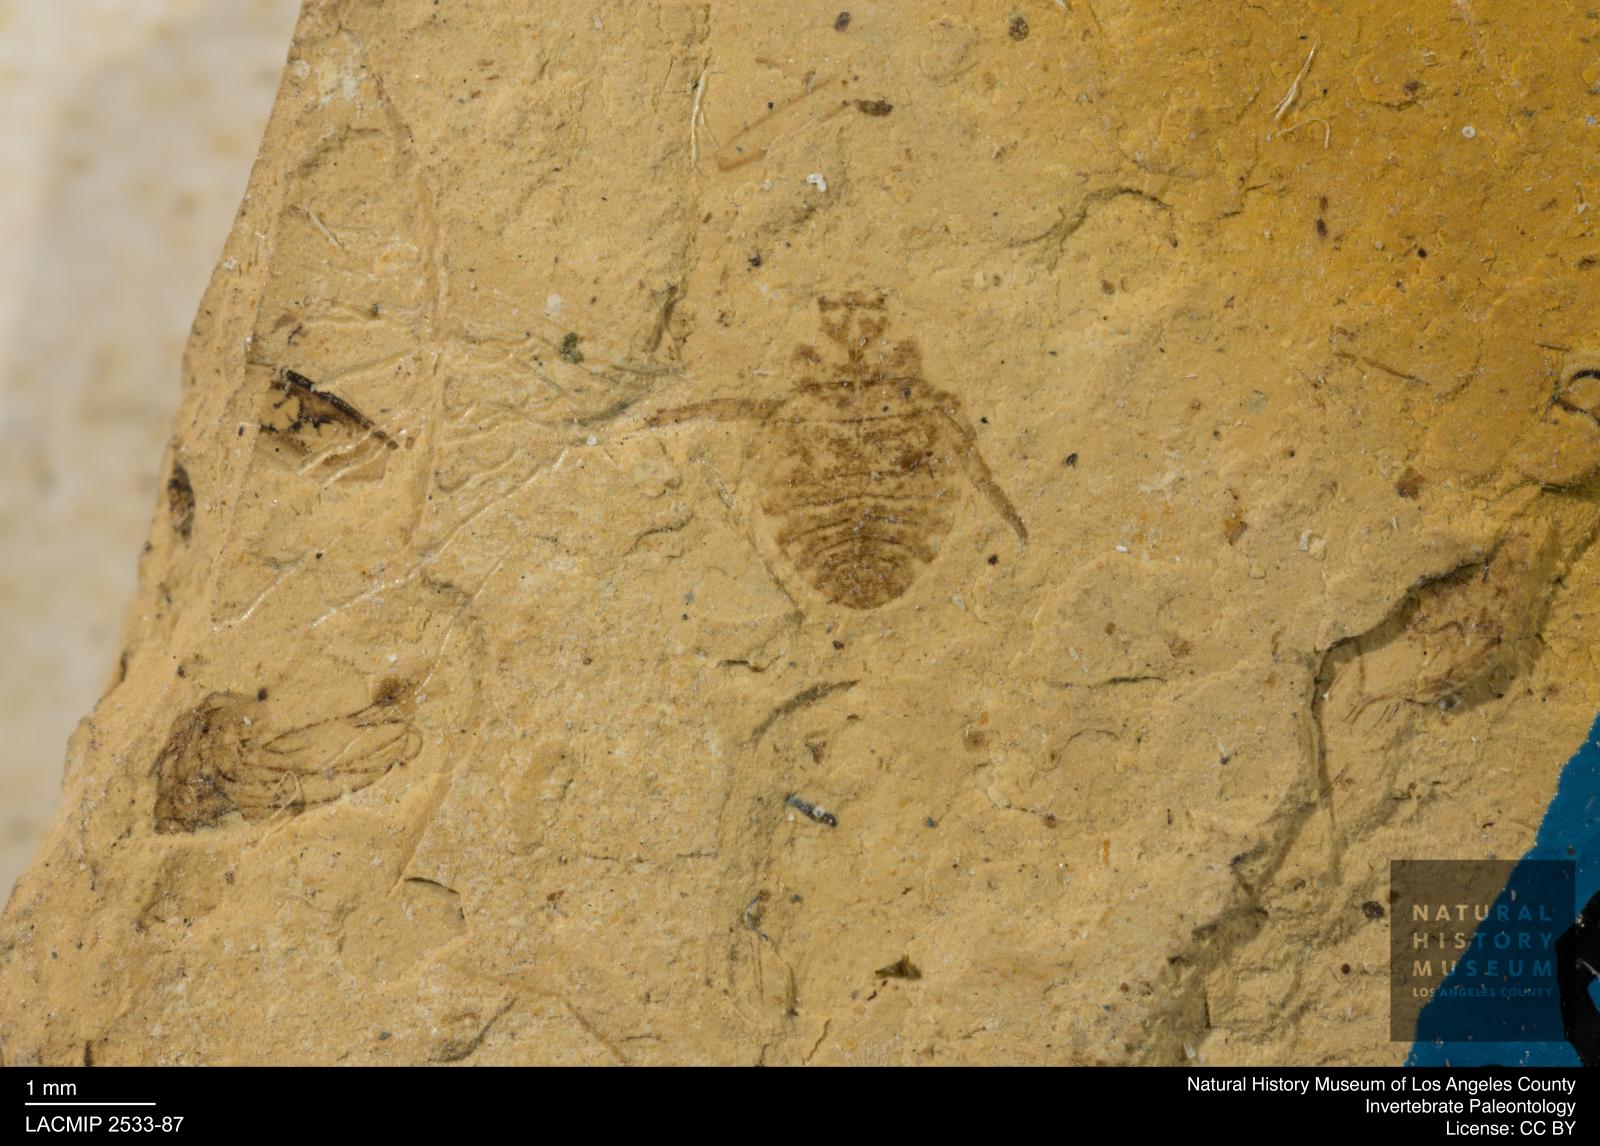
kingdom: Animalia
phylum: Arthropoda
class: Insecta
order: Hemiptera
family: Naucoridae
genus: Naucoris
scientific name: Naucoris rottensis
